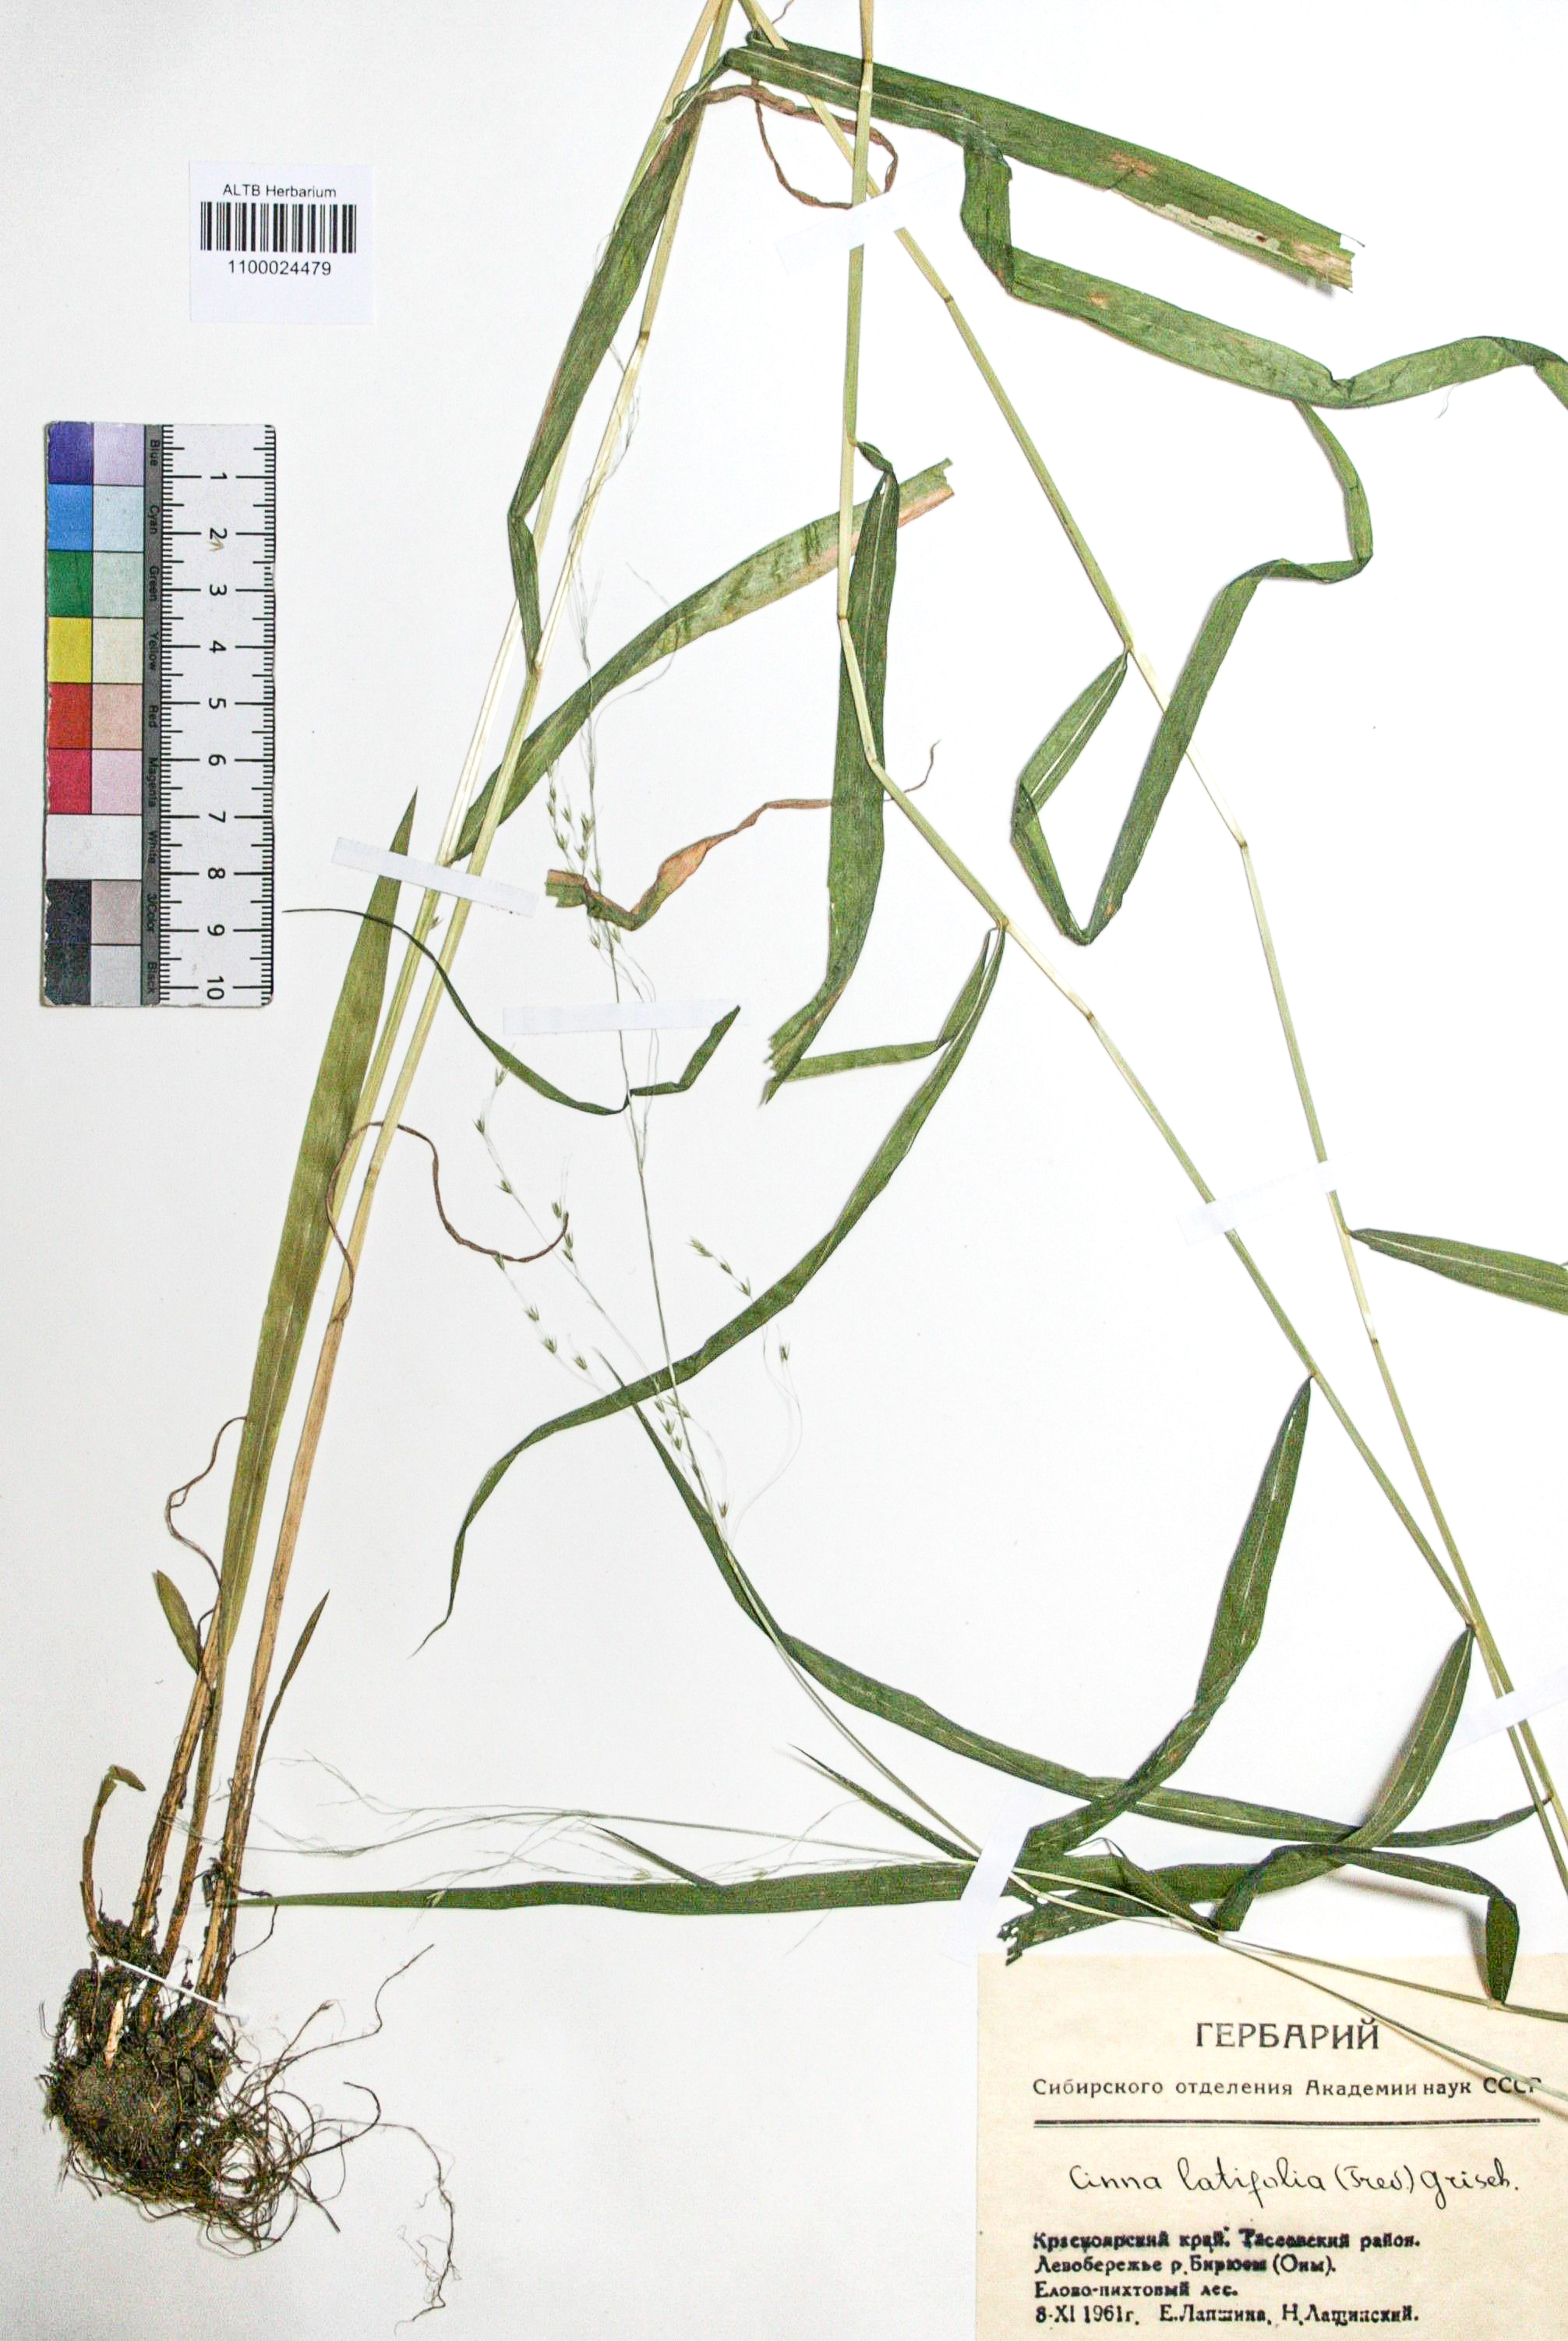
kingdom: Plantae
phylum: Tracheophyta
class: Liliopsida
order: Poales
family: Poaceae
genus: Cinna
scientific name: Cinna latifolia
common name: Drooping woodreed
